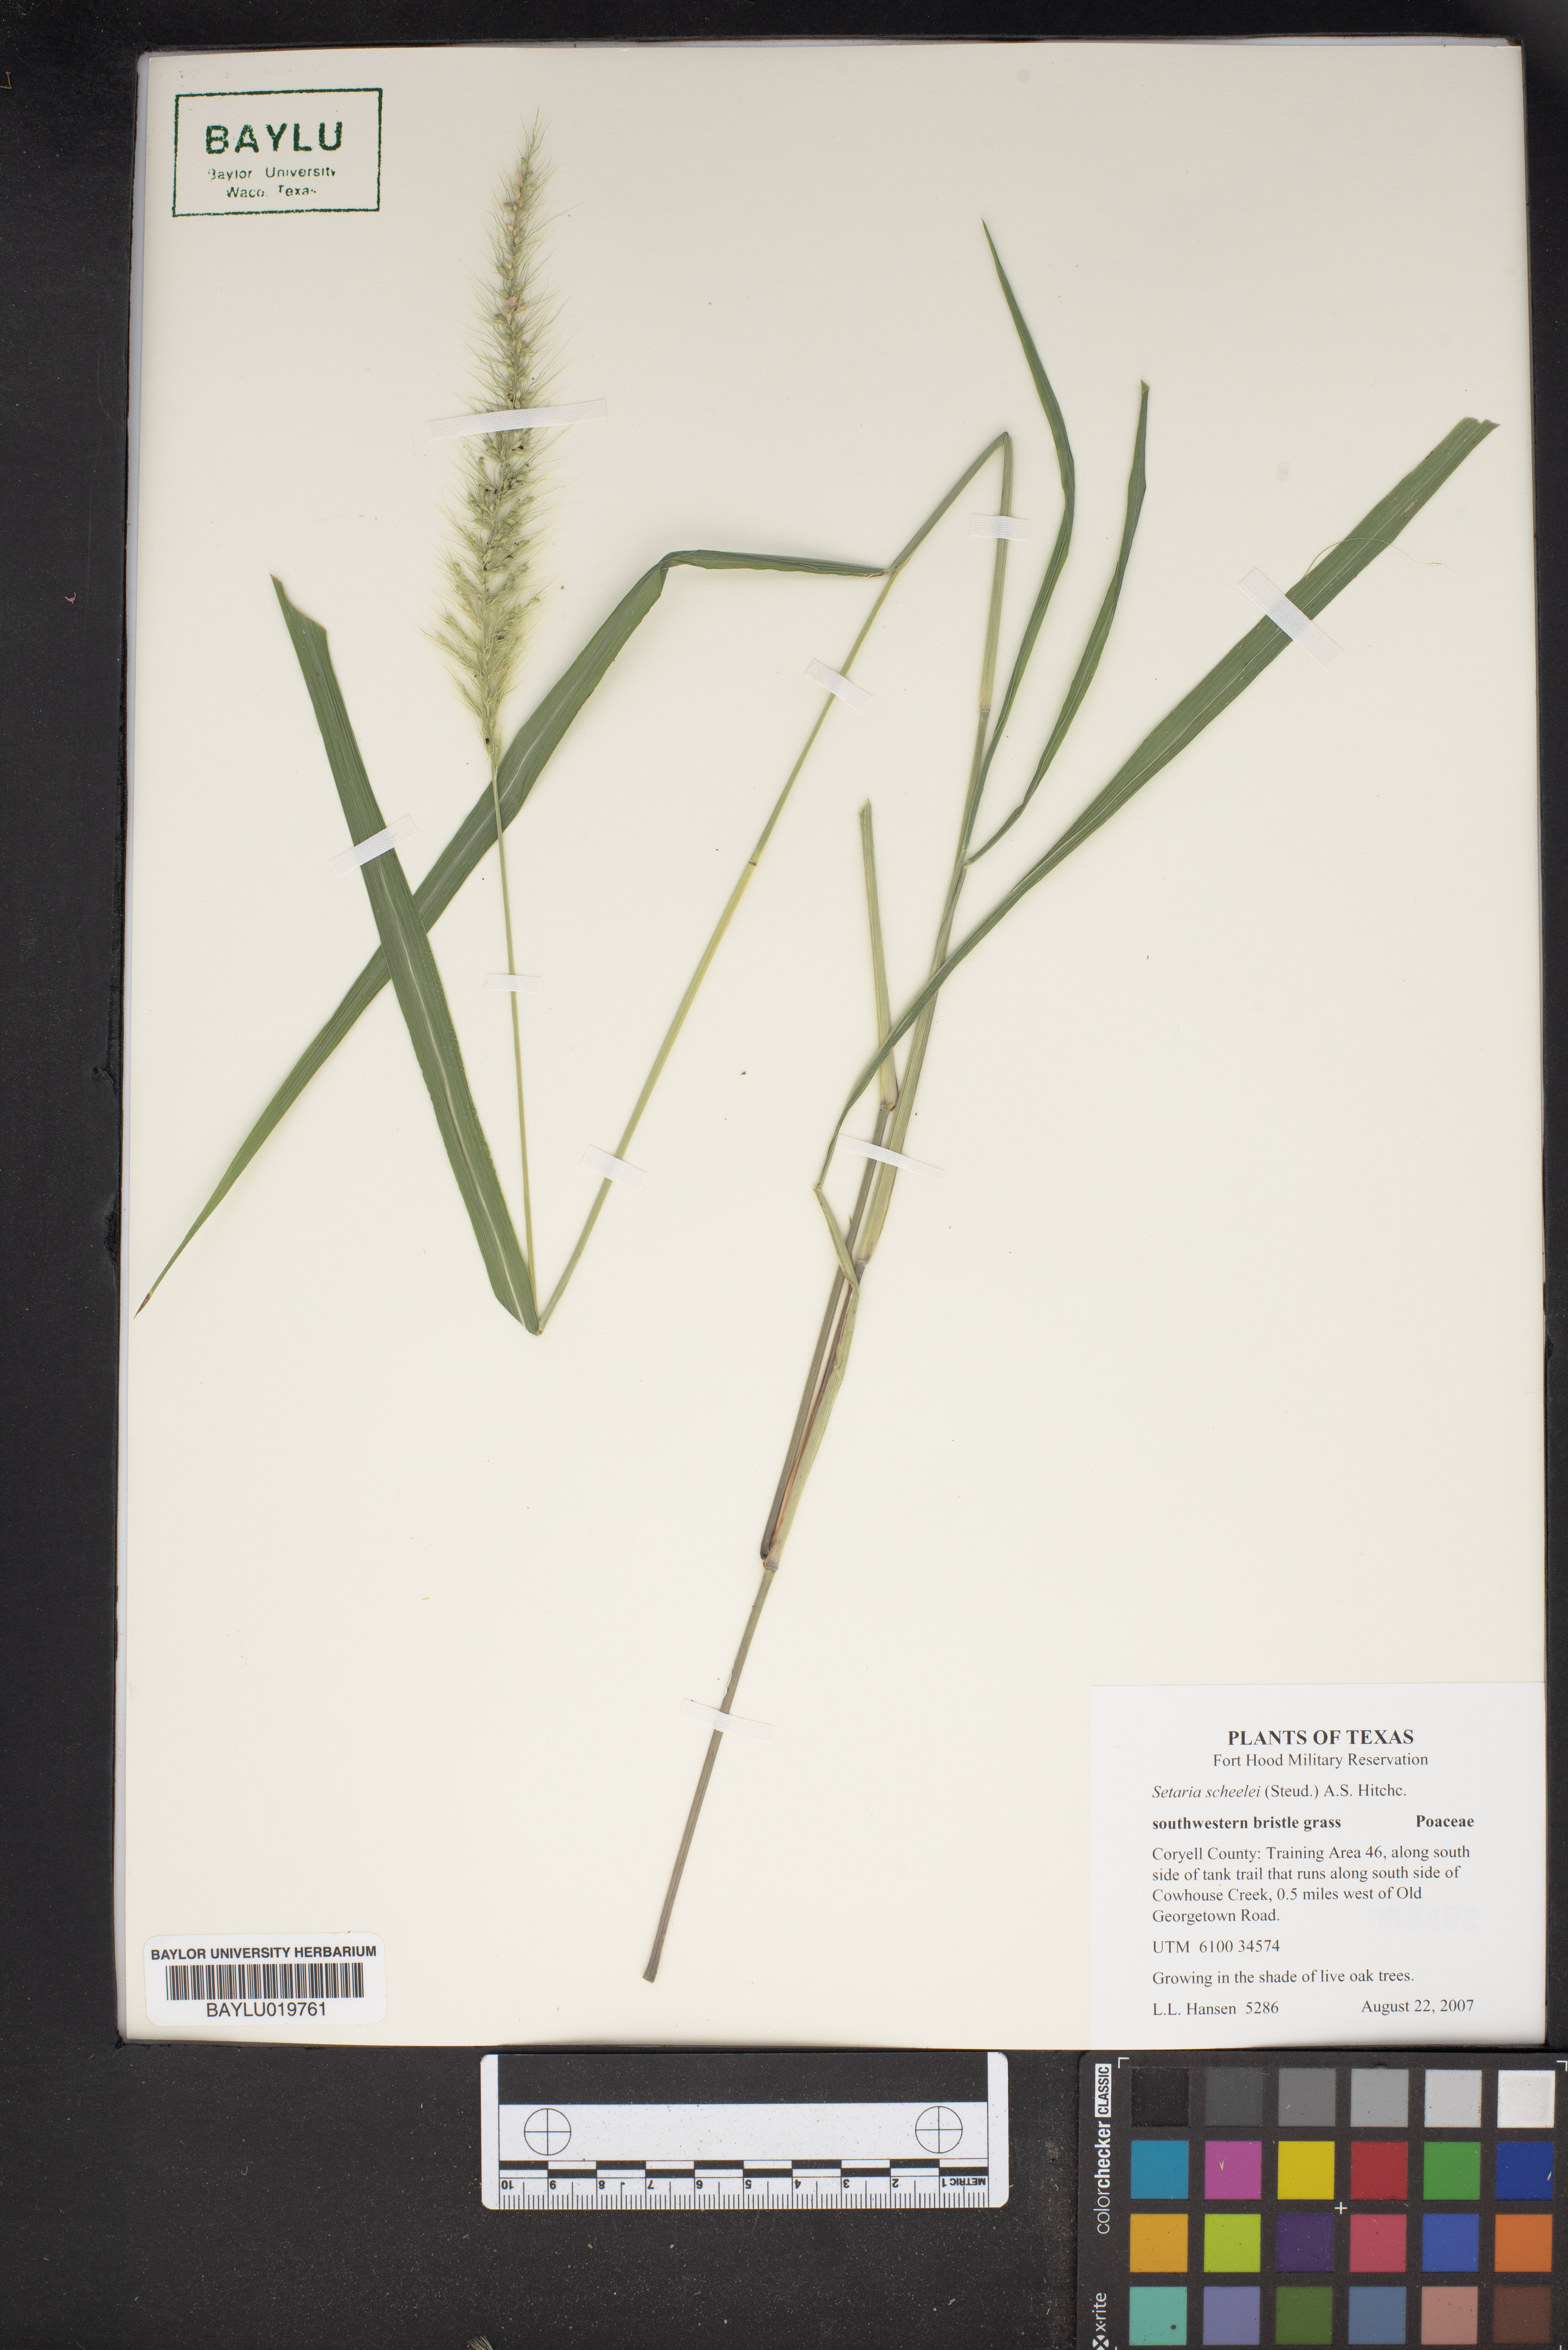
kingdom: Plantae
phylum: Tracheophyta
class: Liliopsida
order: Poales
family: Poaceae
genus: Setaria
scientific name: Setaria scheelei
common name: Southwestern bristle grass
